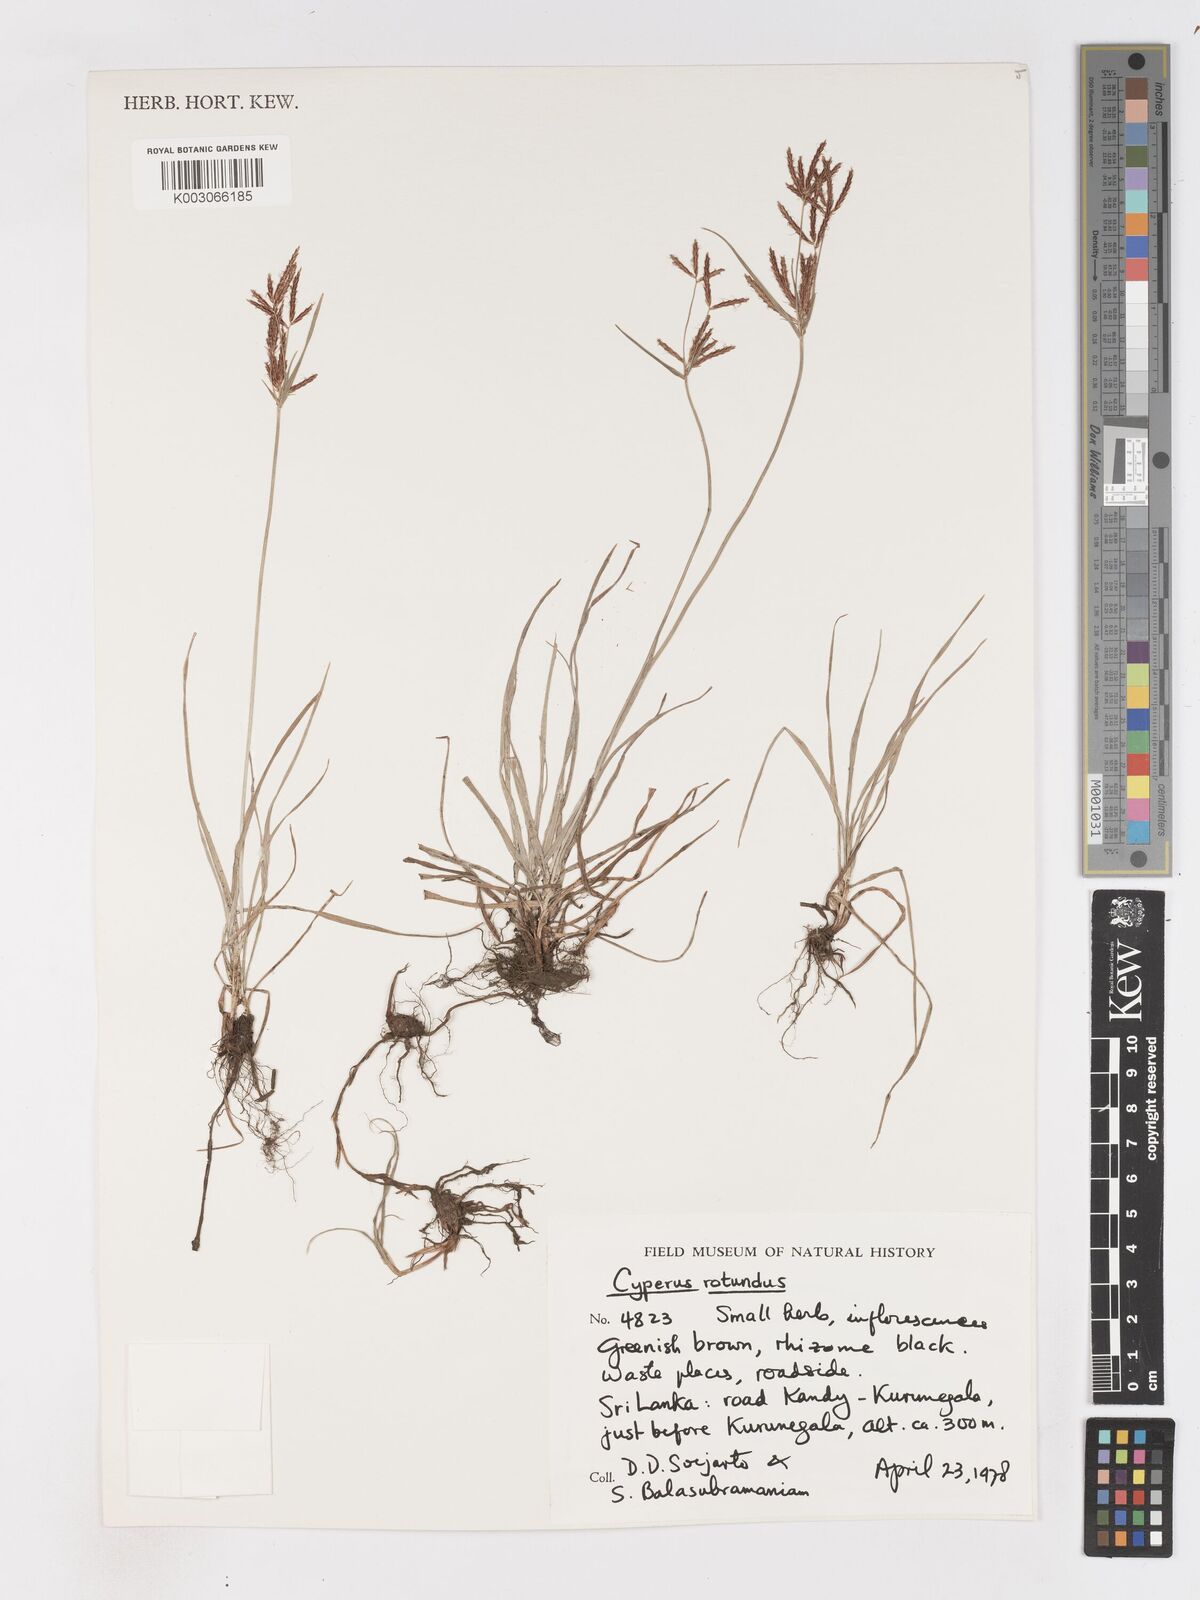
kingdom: Plantae
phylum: Tracheophyta
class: Liliopsida
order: Poales
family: Cyperaceae
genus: Cyperus
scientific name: Cyperus rotundus
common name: Nutgrass
